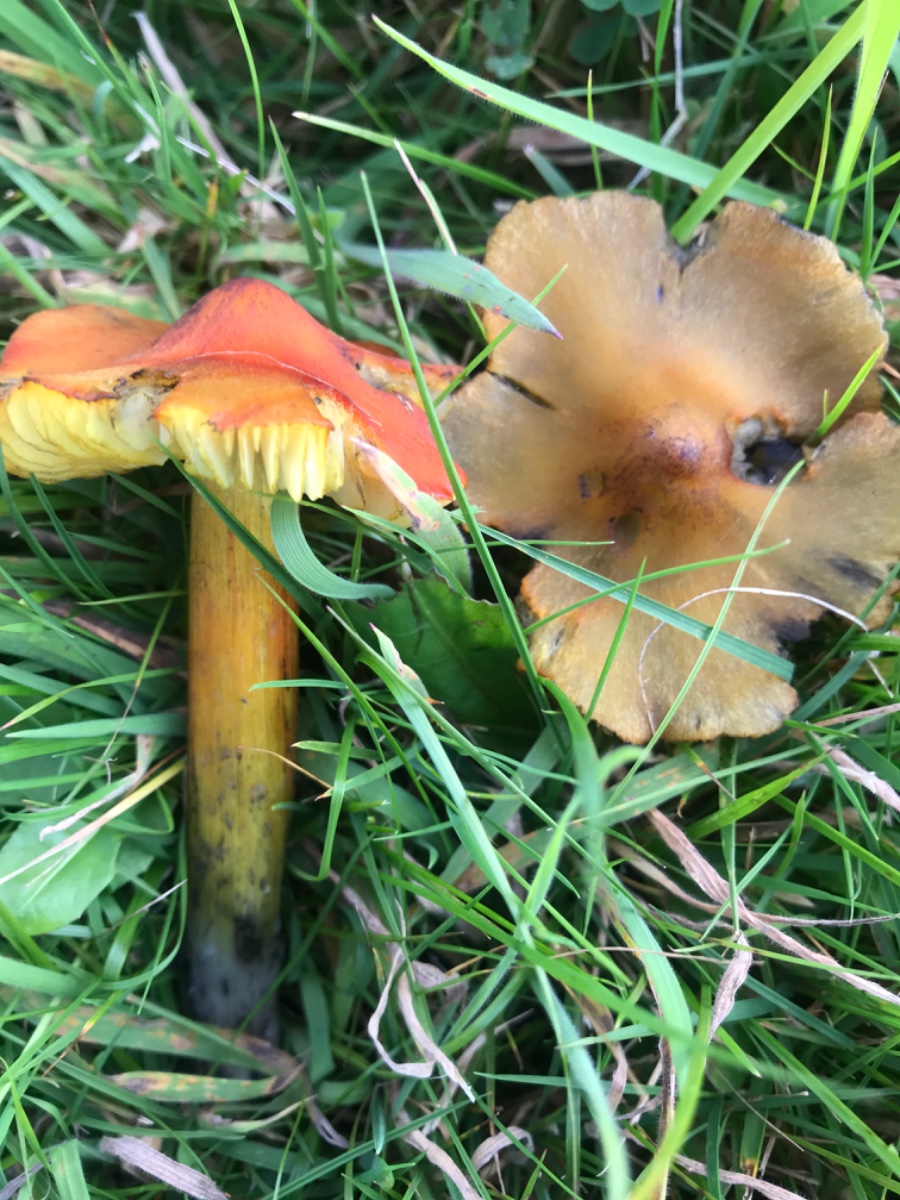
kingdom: Fungi
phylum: Basidiomycota
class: Agaricomycetes
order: Agaricales
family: Hygrophoraceae
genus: Hygrocybe
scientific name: Hygrocybe conica
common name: kegle-vokshat
